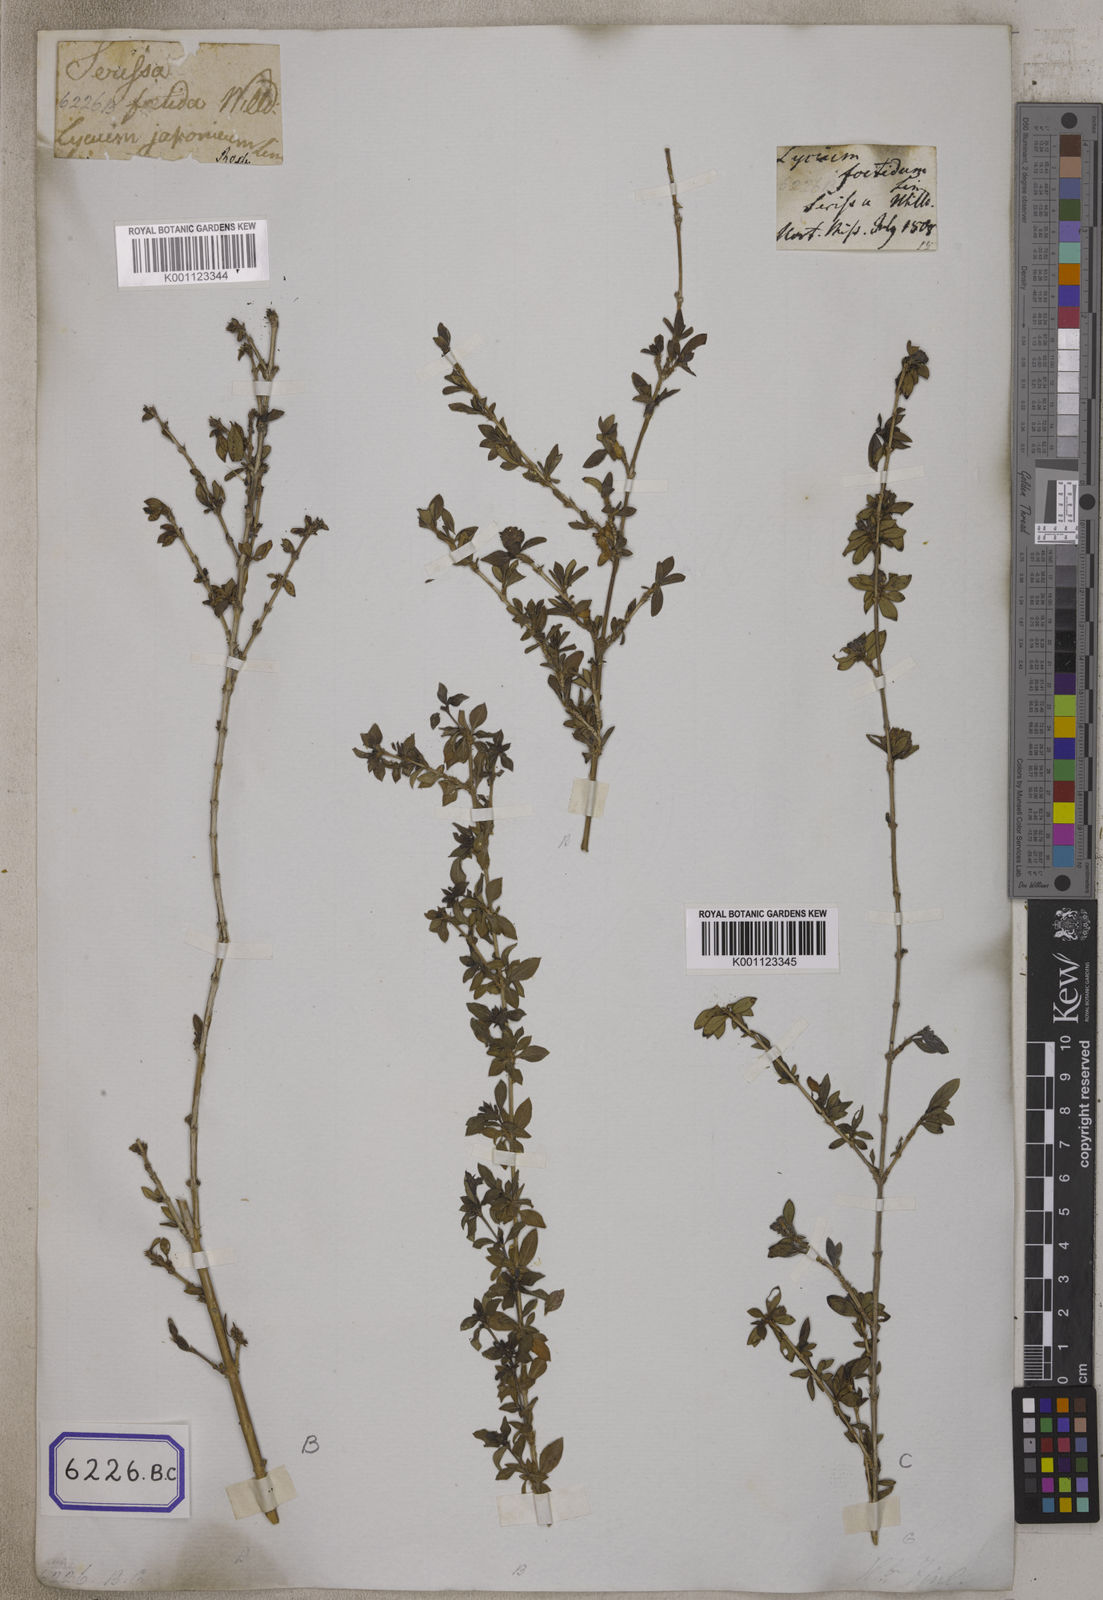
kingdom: Plantae
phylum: Tracheophyta
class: Magnoliopsida
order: Gentianales
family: Rubiaceae
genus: Buchozia
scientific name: Buchozia
